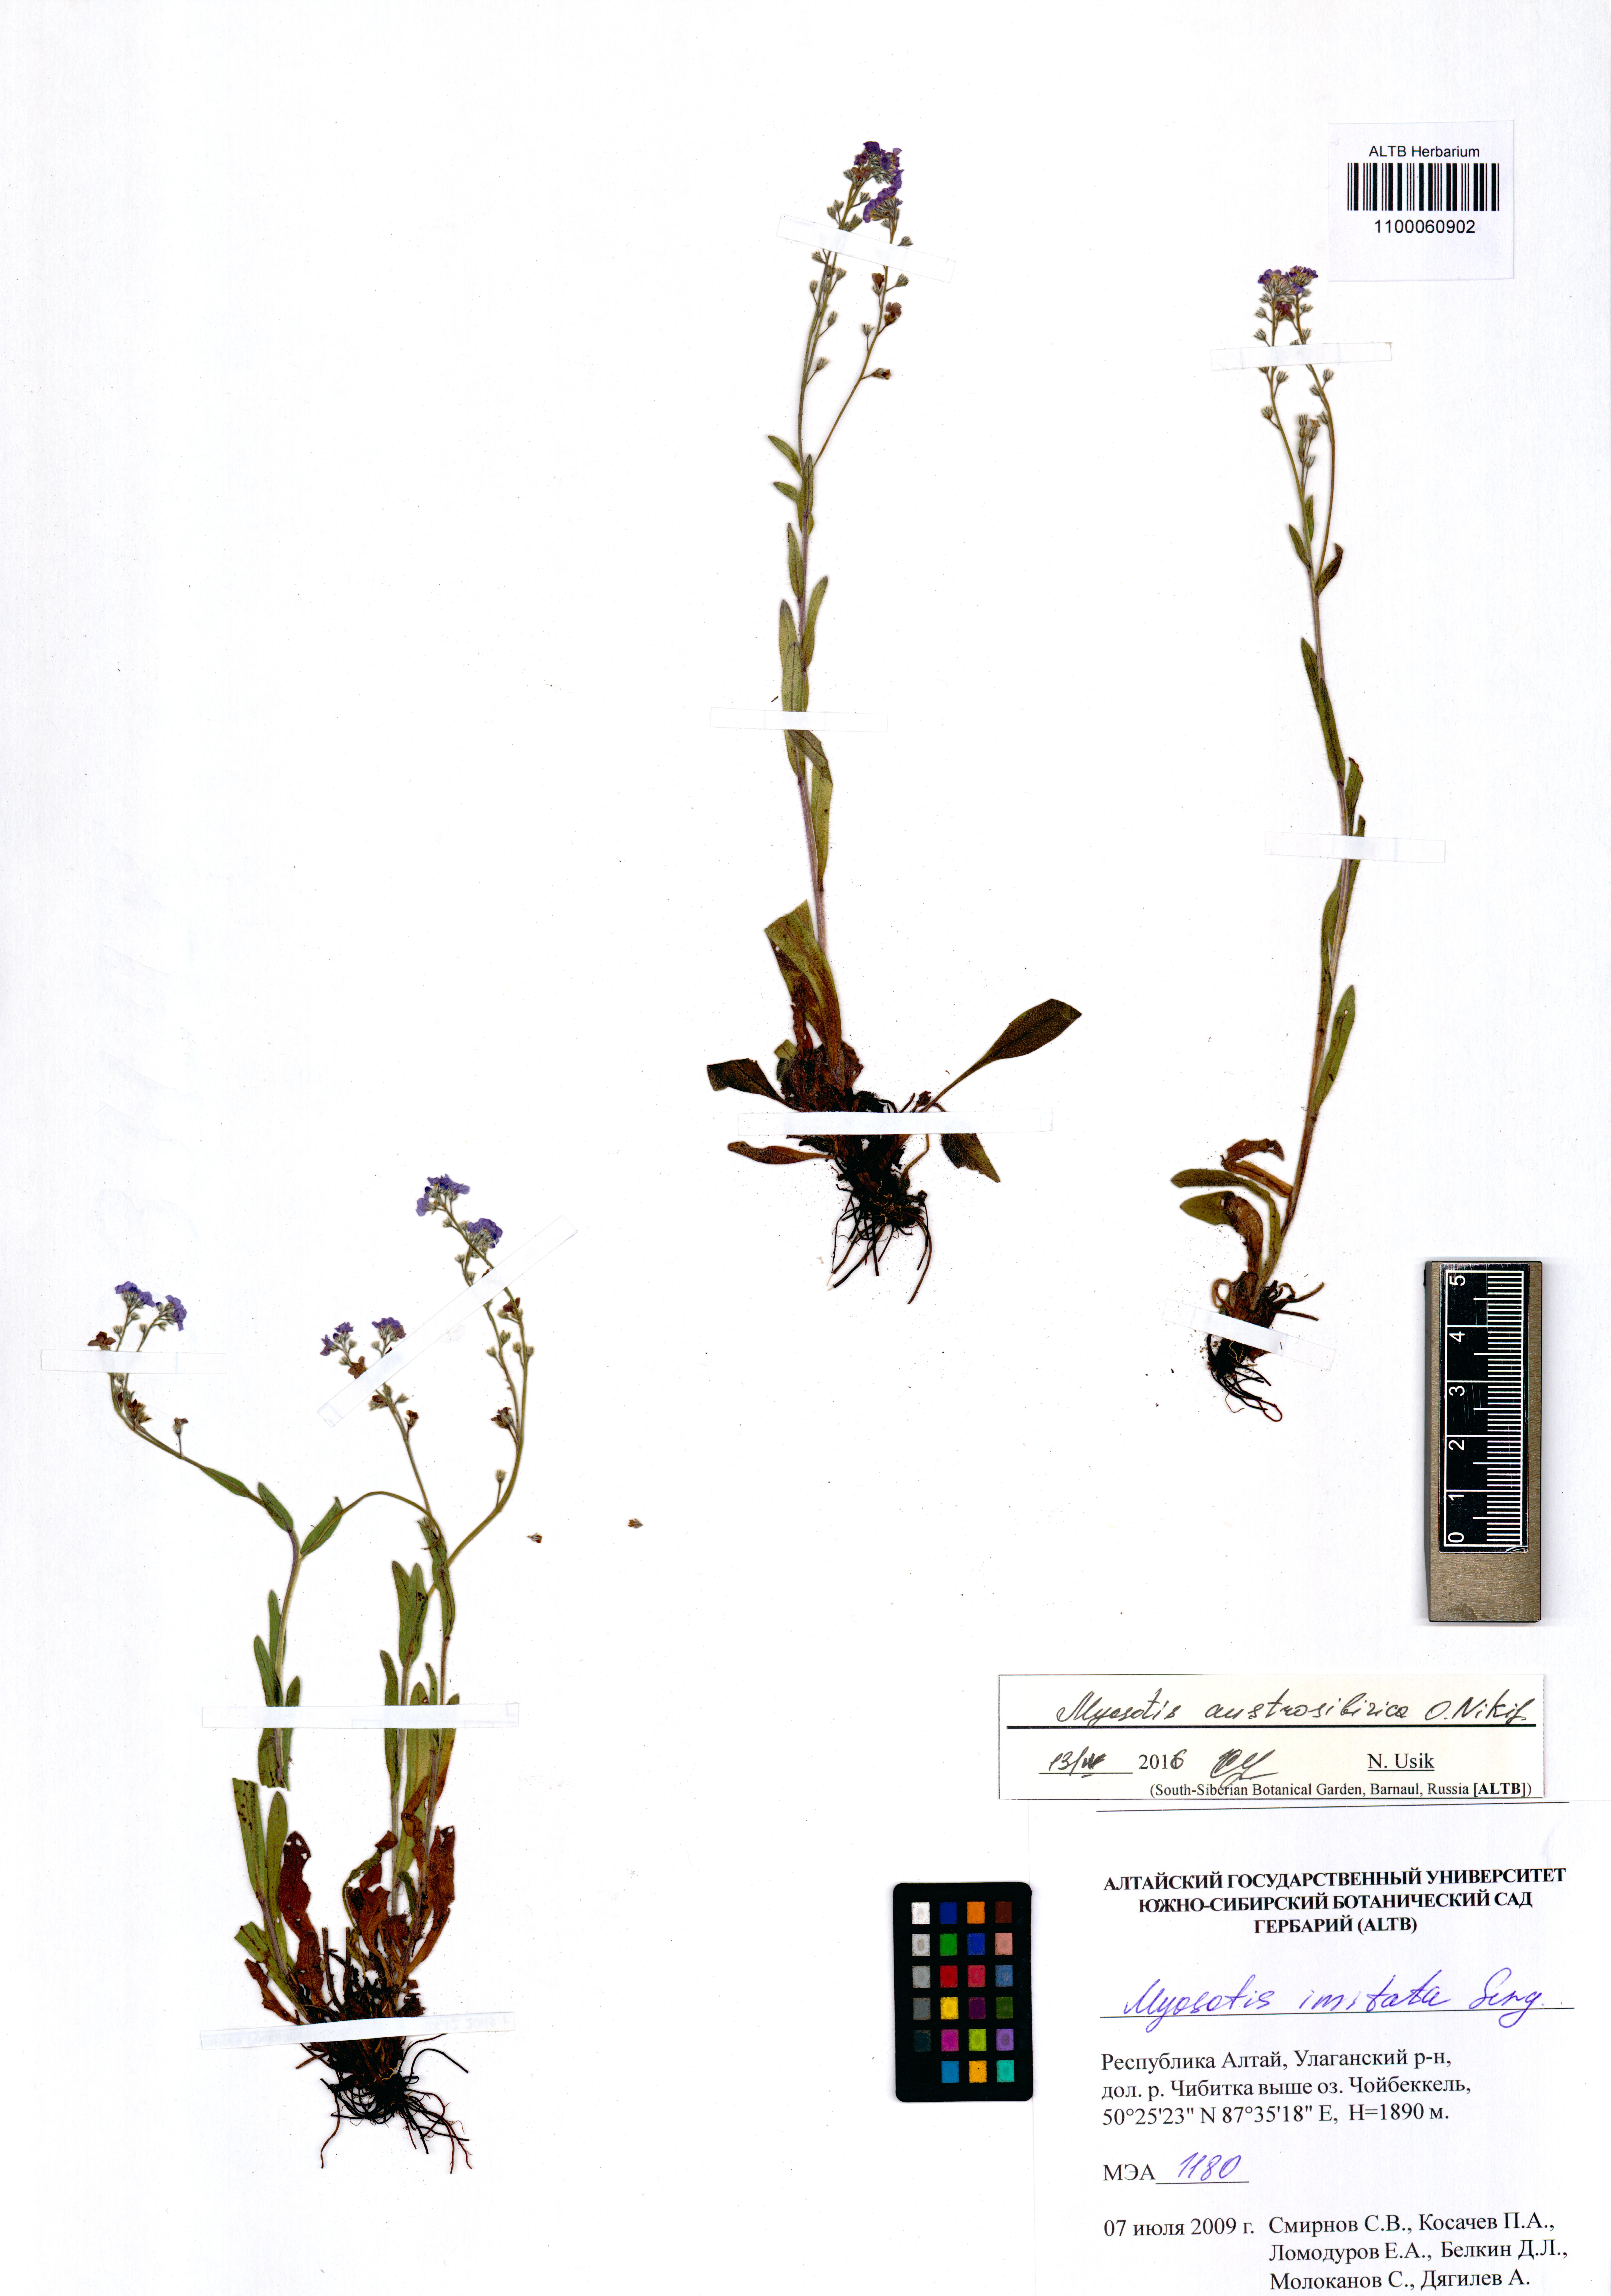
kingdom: Plantae
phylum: Tracheophyta
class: Magnoliopsida
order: Boraginales
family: Boraginaceae
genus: Myosotis
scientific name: Myosotis austrosibirica
